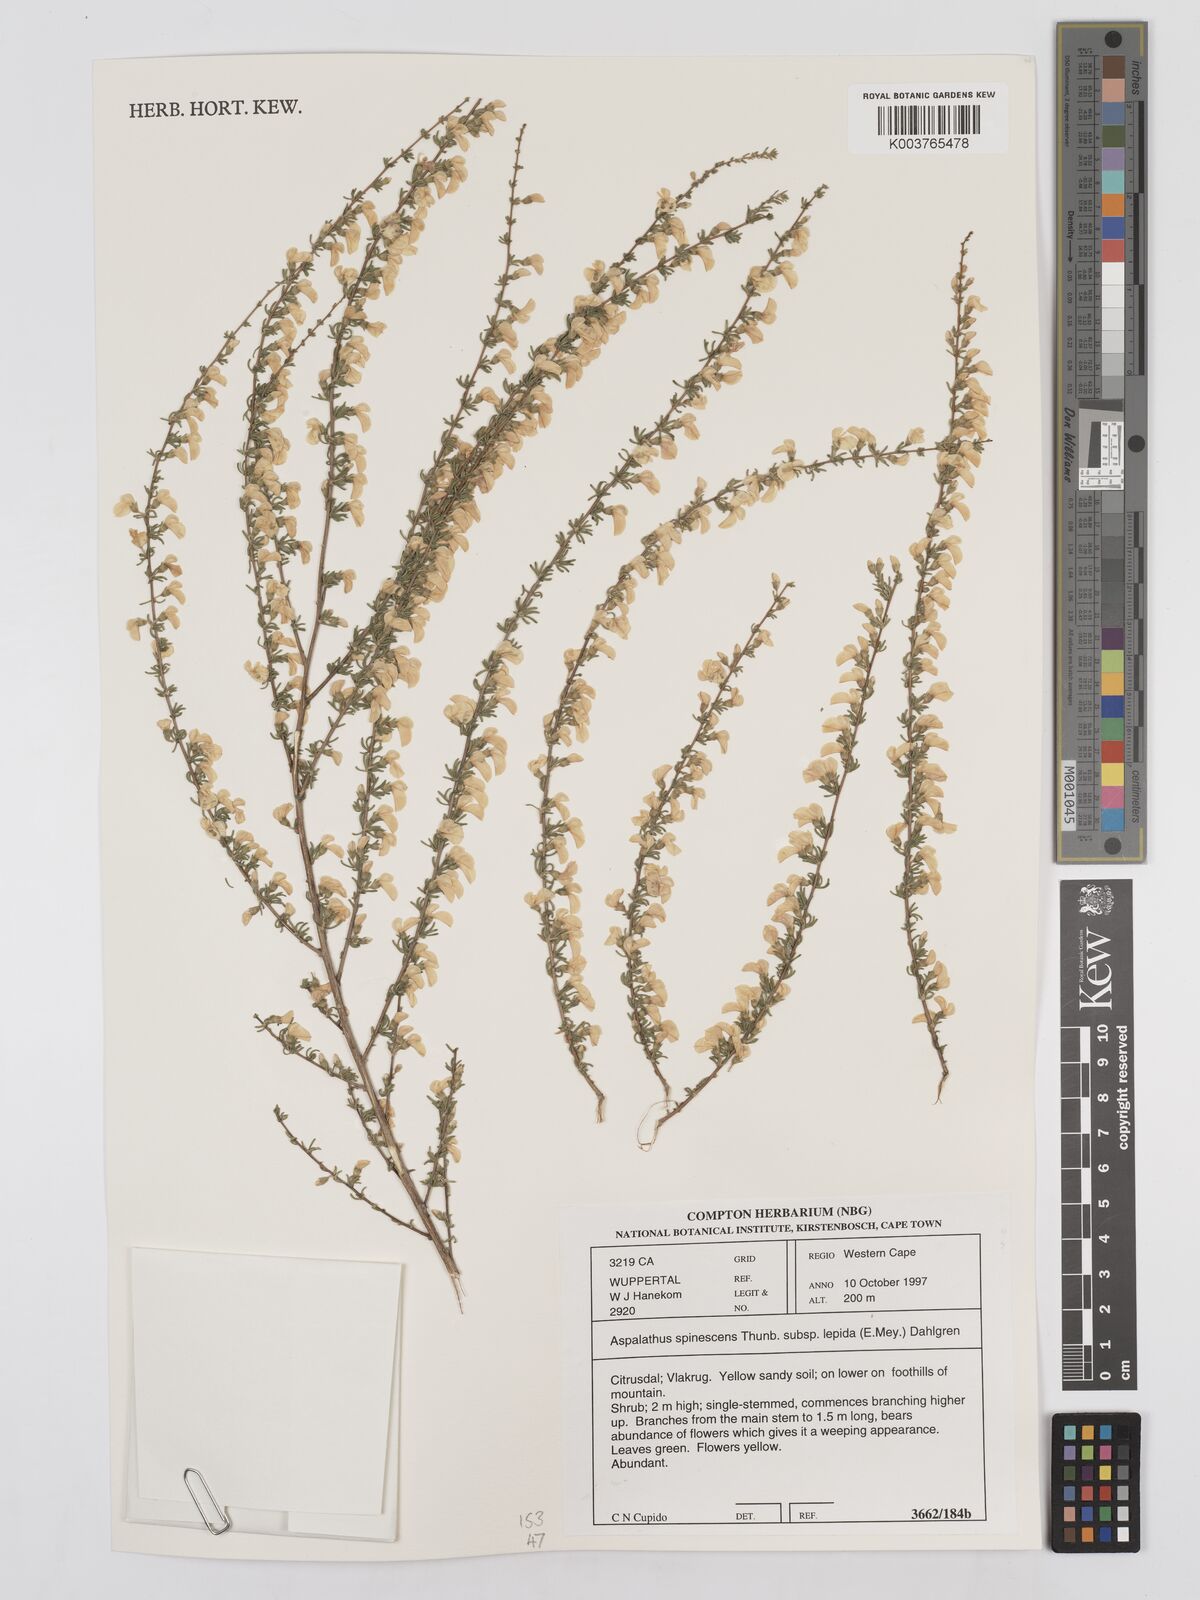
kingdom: Plantae
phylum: Tracheophyta
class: Magnoliopsida
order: Fabales
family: Fabaceae
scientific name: Fabaceae
